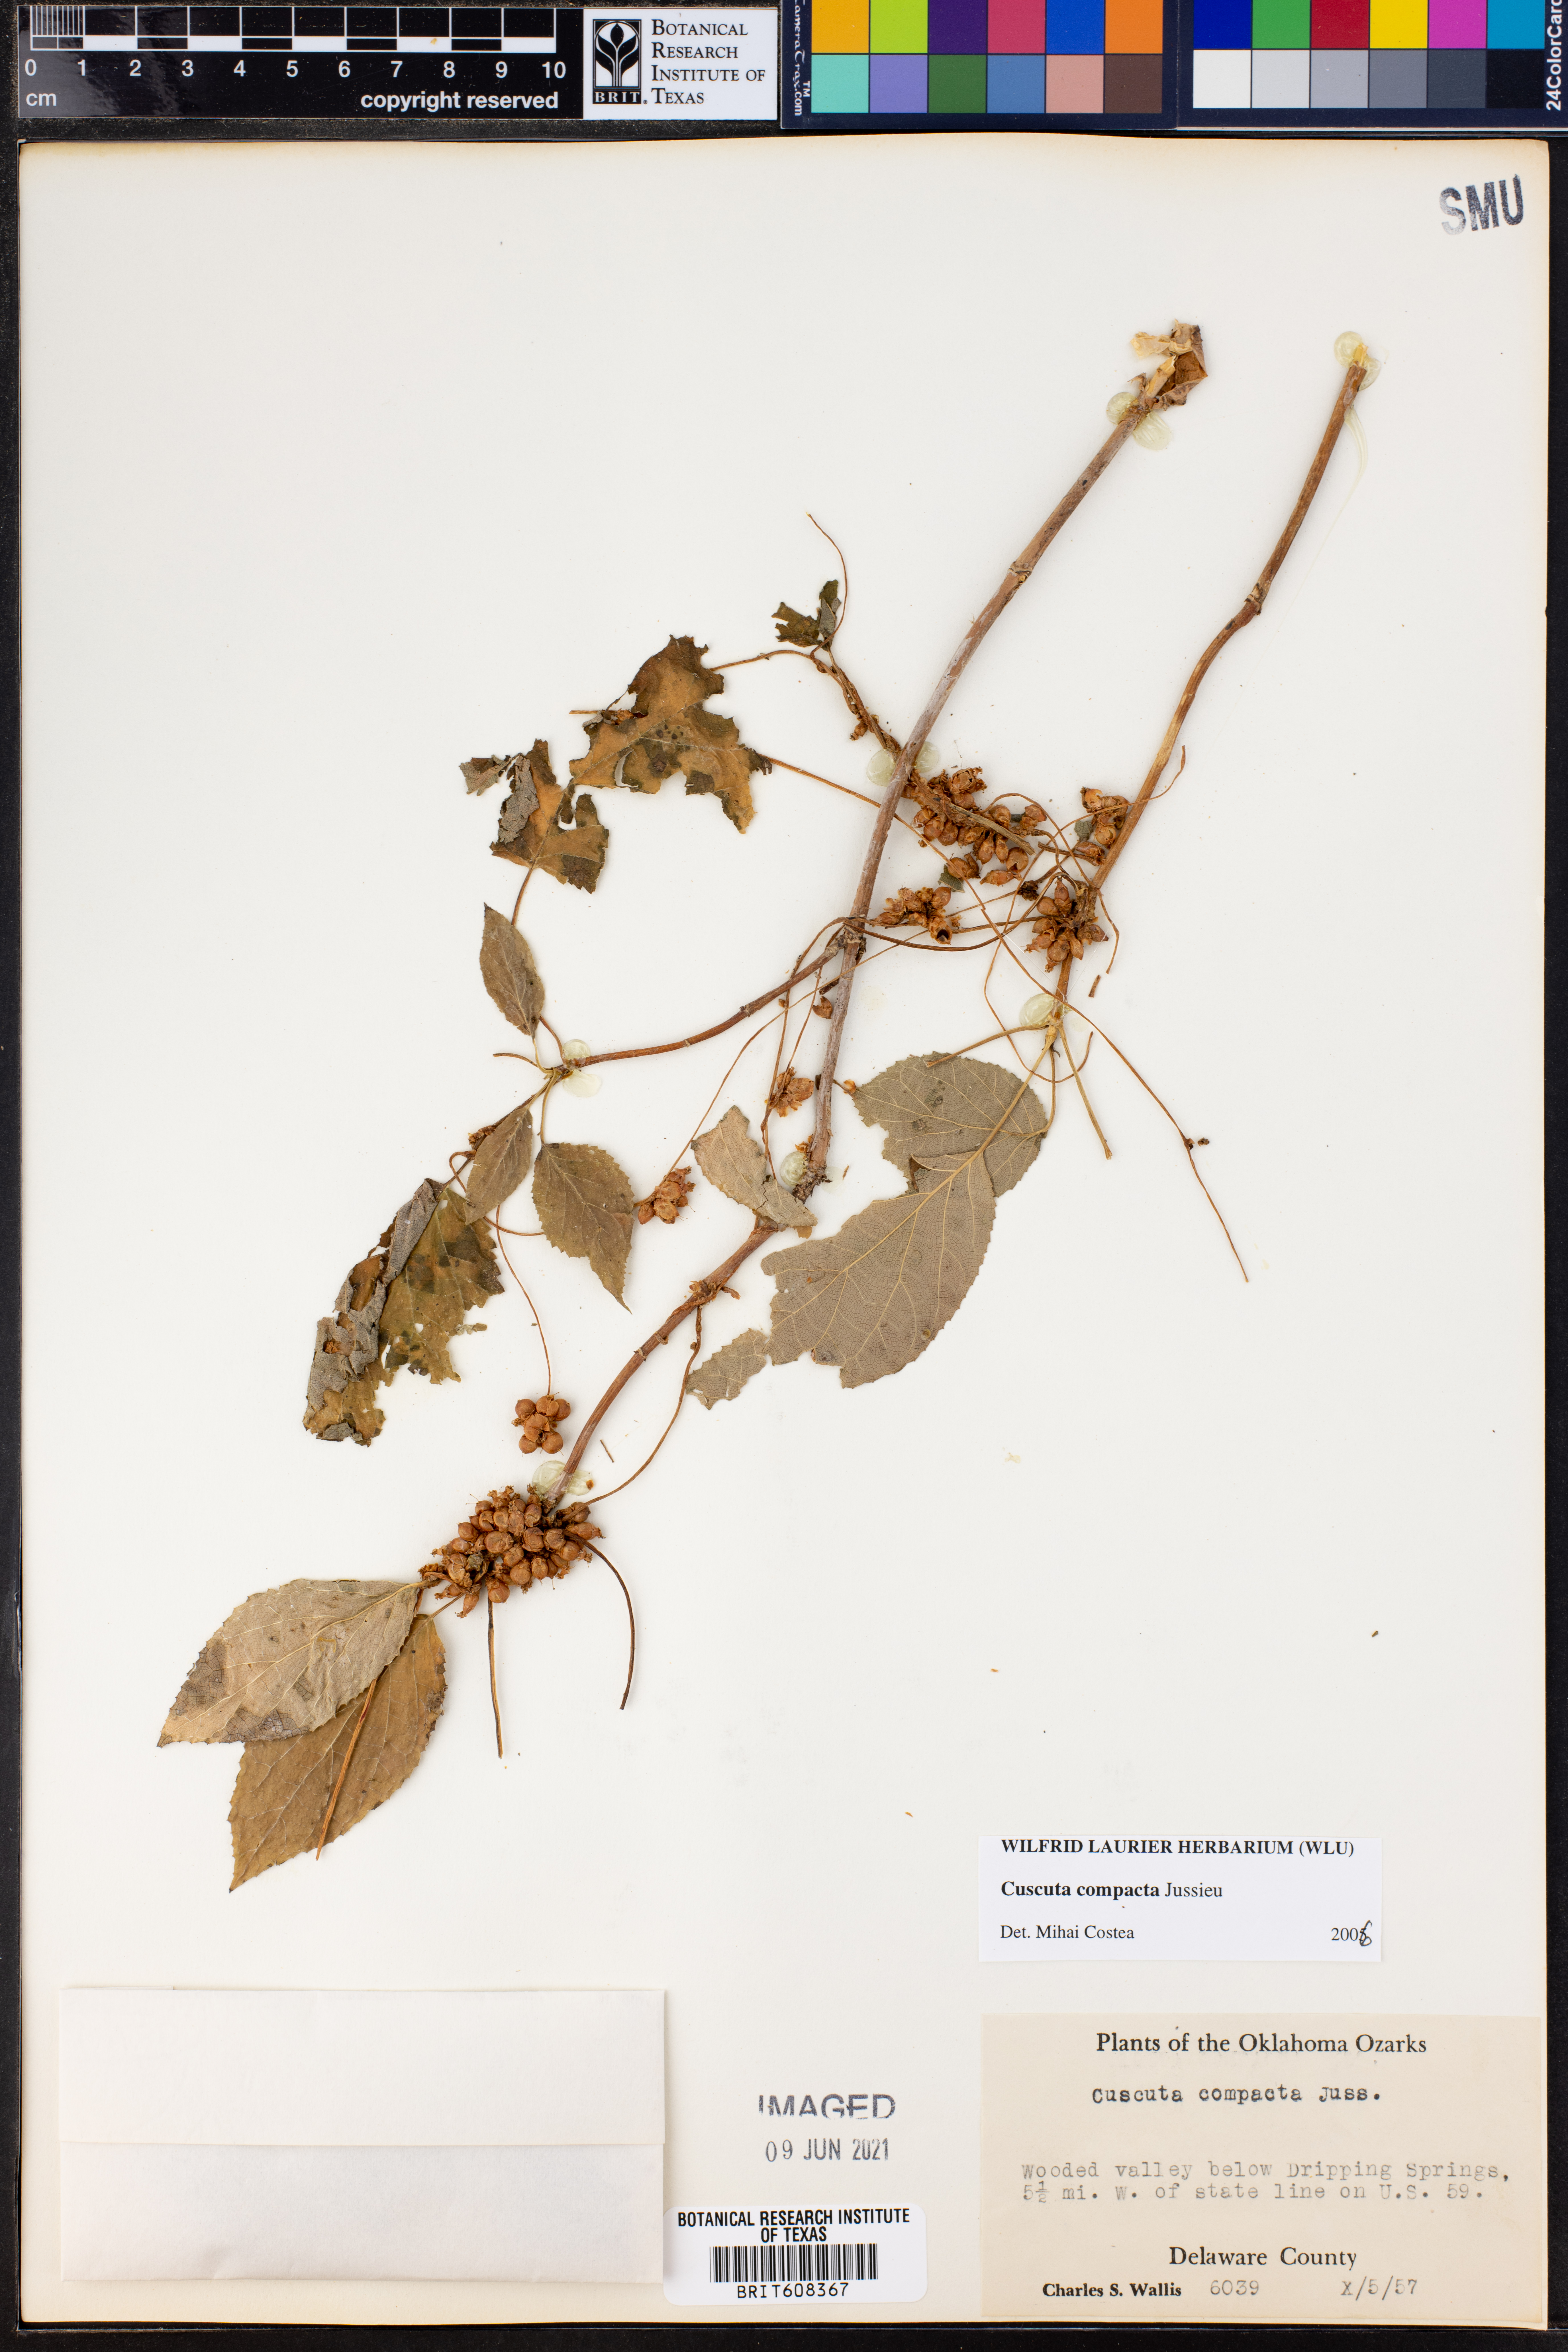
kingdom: Plantae
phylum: Tracheophyta
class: Magnoliopsida
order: Solanales
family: Convolvulaceae
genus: Cuscuta
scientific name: Cuscuta compacta
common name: Compact dodder
